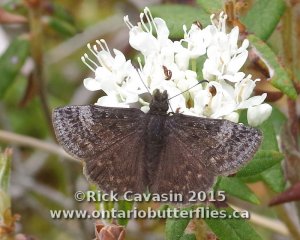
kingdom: Animalia
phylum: Arthropoda
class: Insecta
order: Lepidoptera
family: Hesperiidae
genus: Erynnis
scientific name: Erynnis icelus
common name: Dreamy Duskywing
